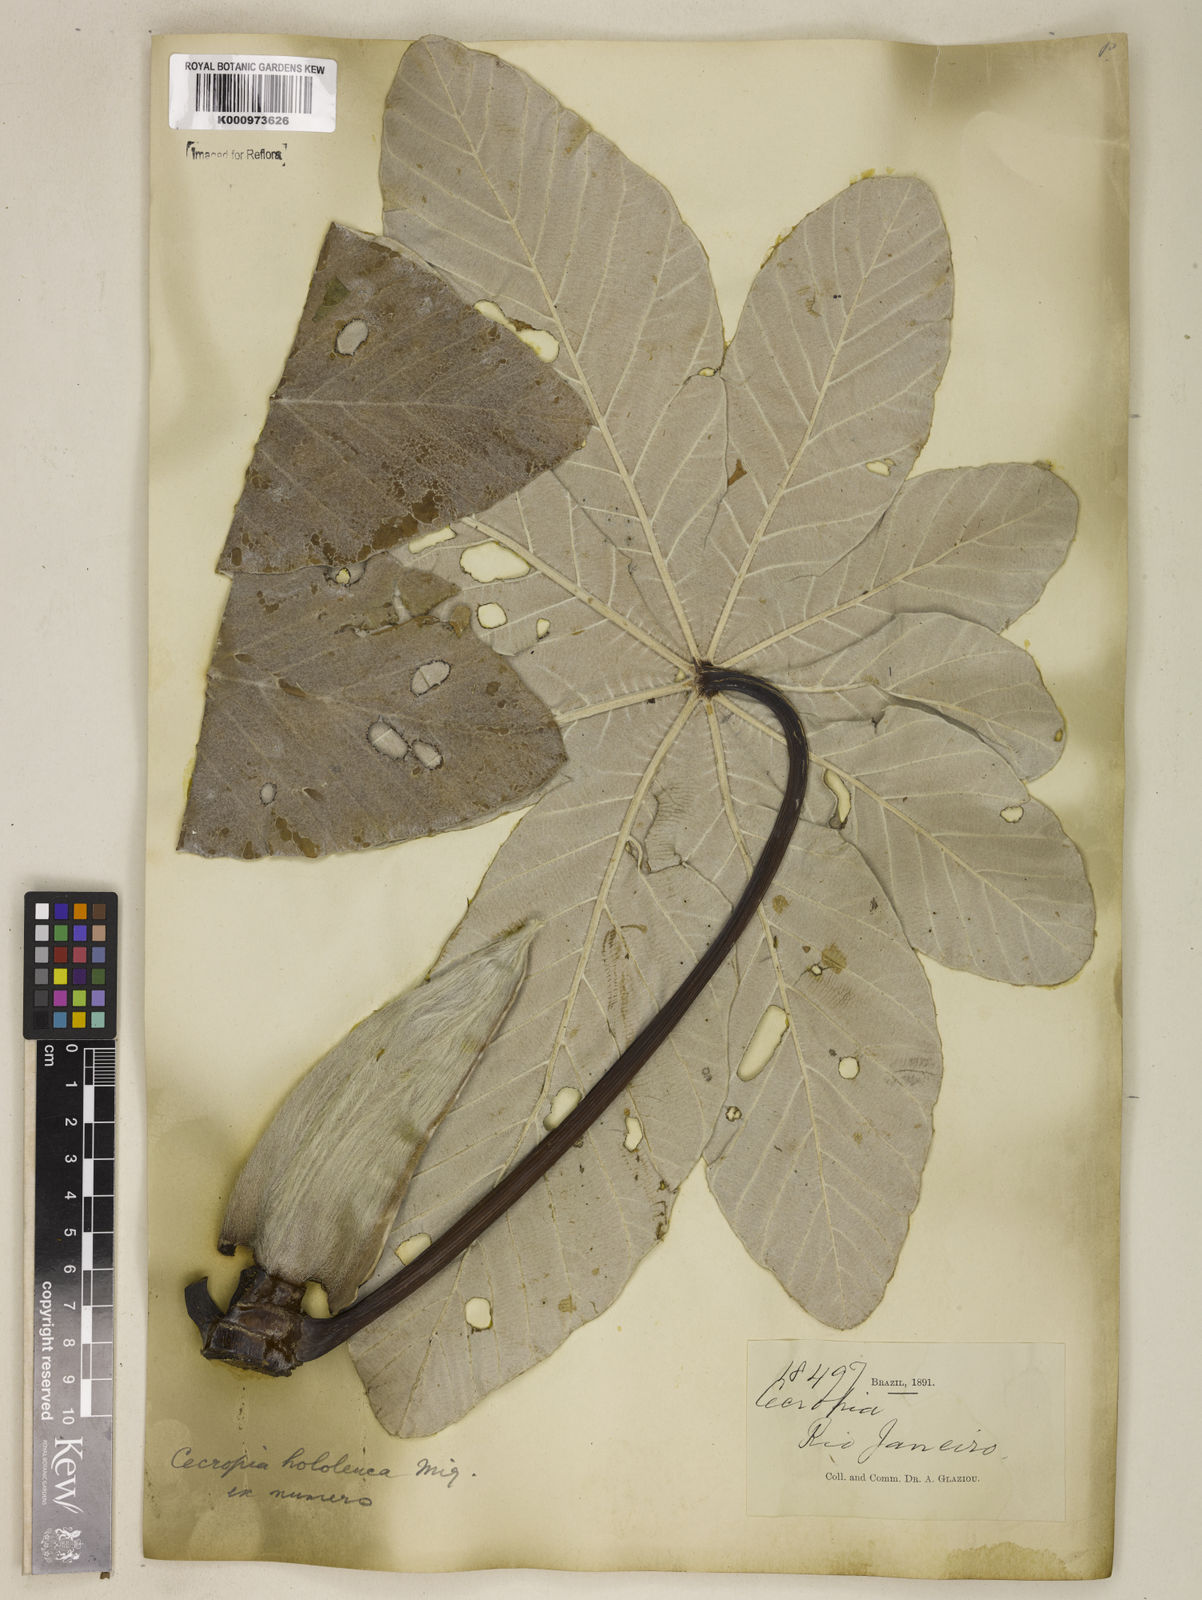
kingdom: Plantae
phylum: Tracheophyta
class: Magnoliopsida
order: Rosales
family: Urticaceae
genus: Cecropia
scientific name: Cecropia hololeuca
